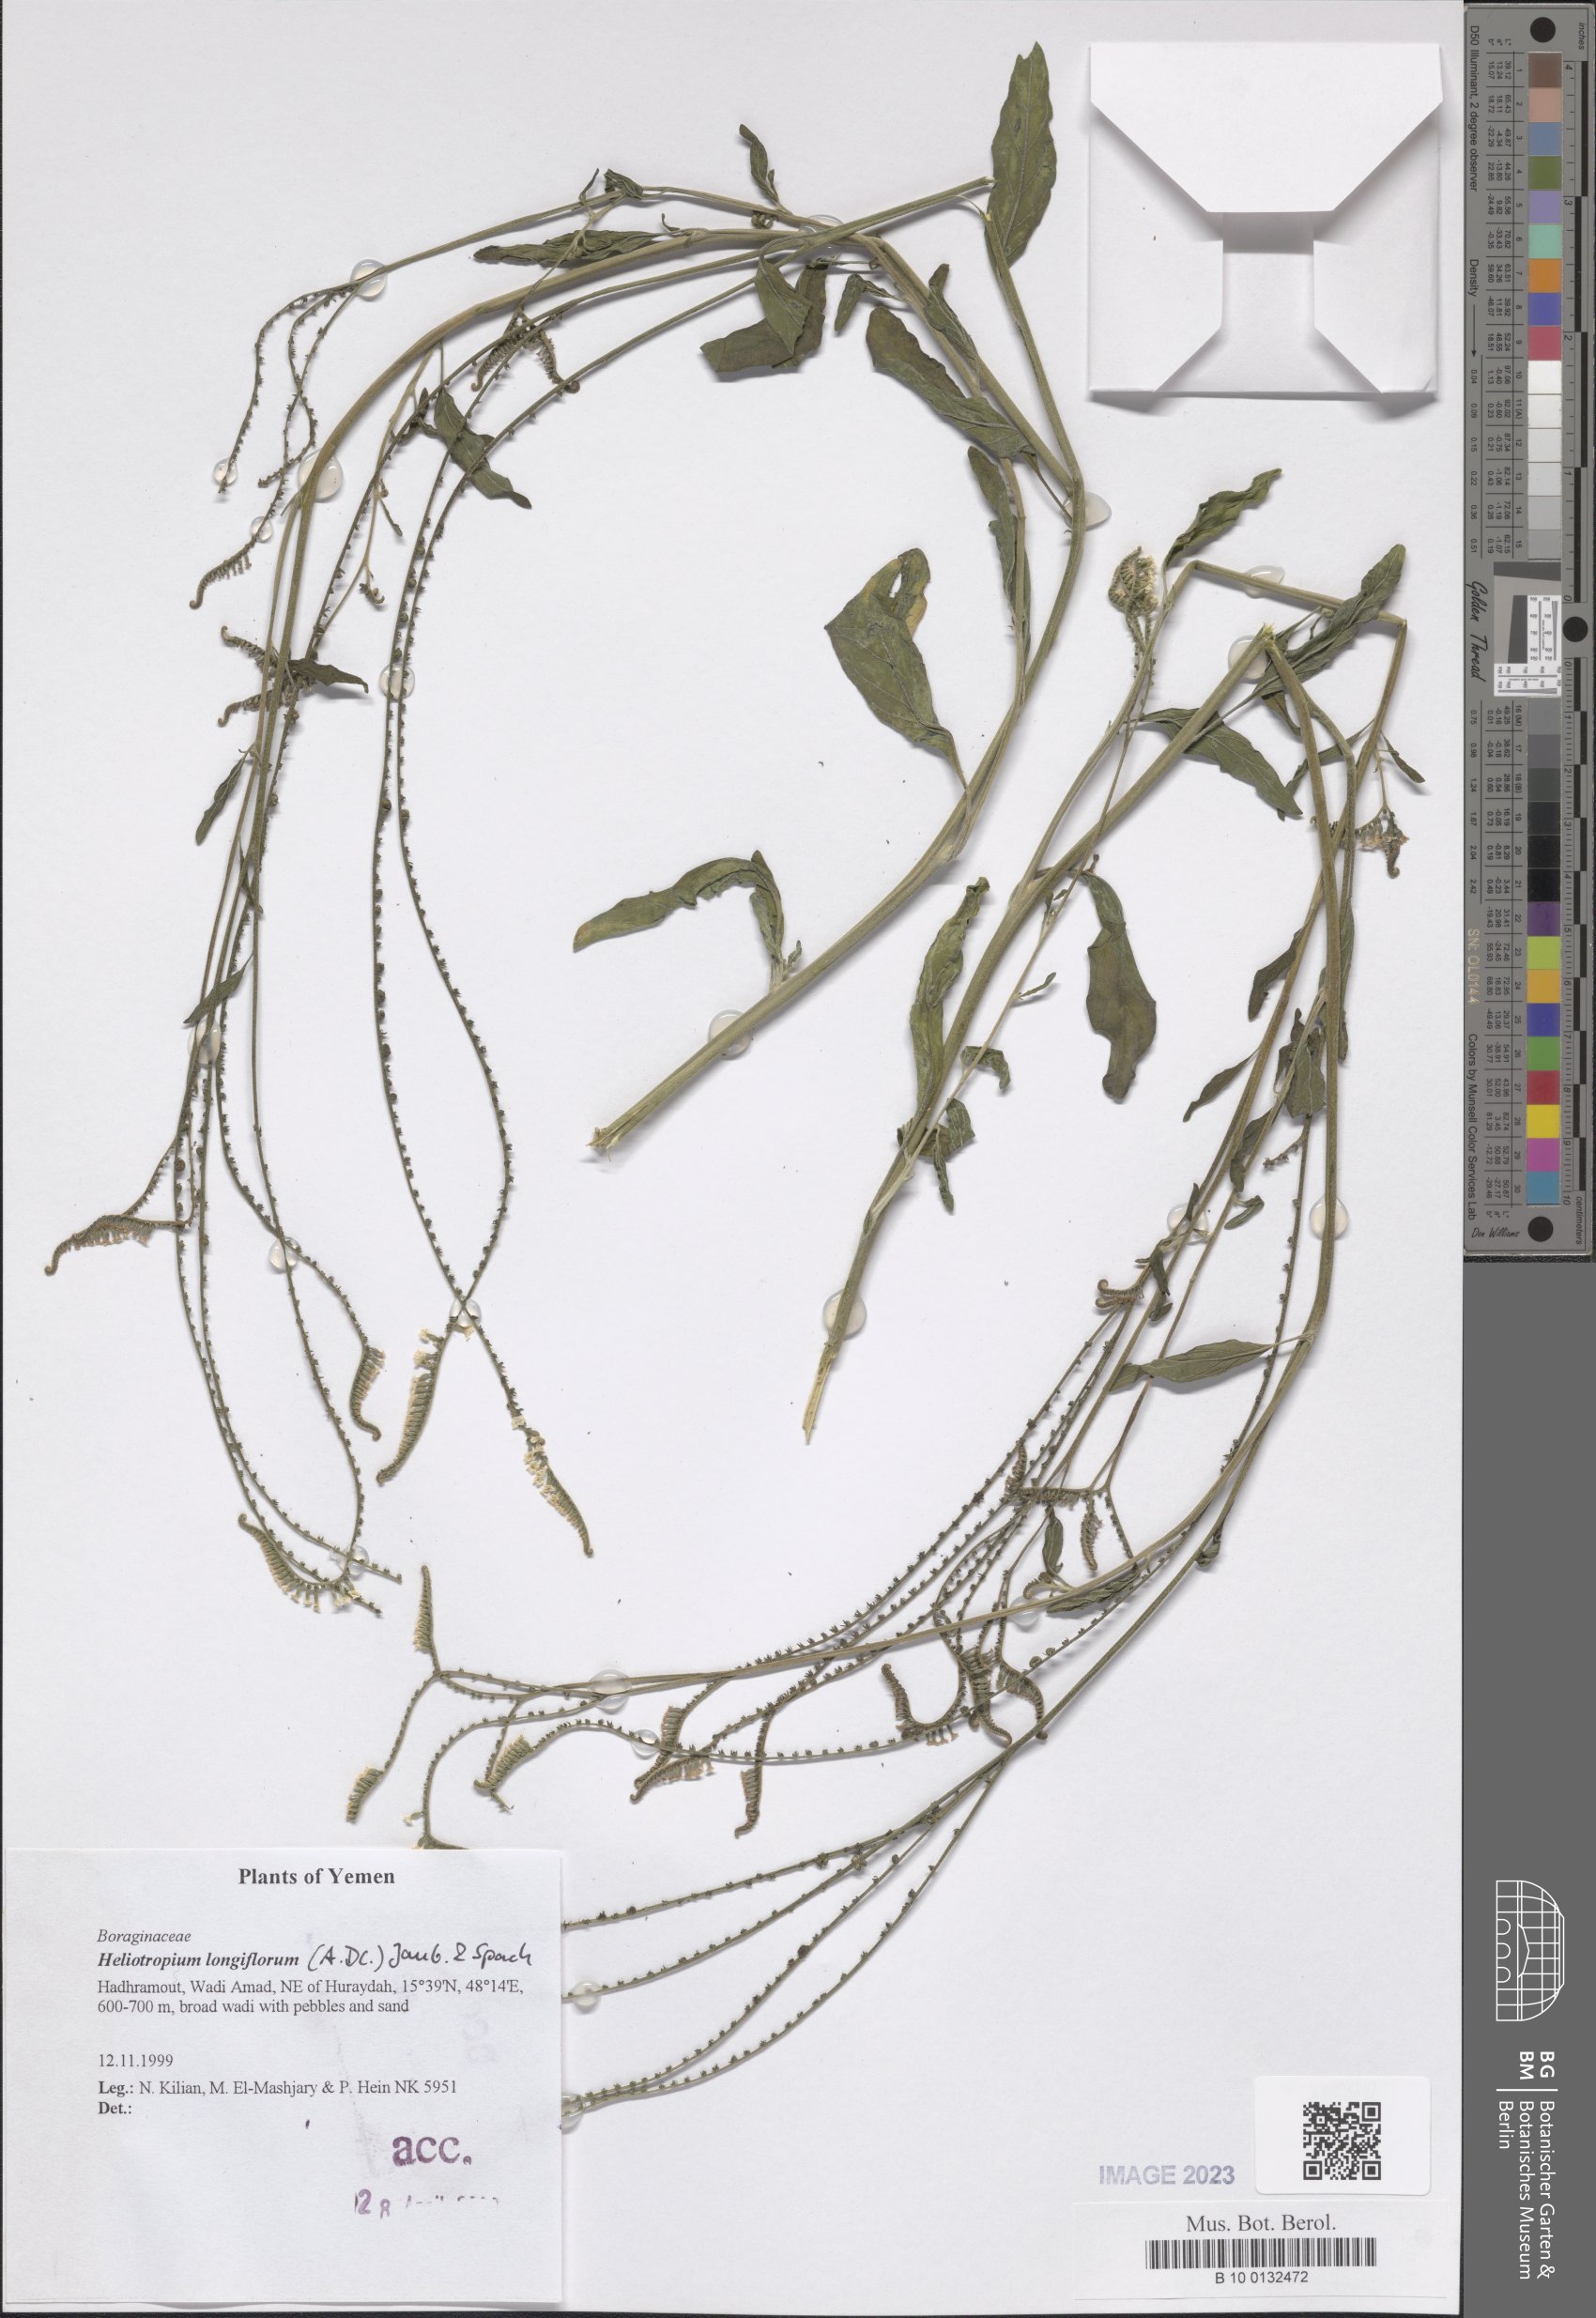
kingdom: Plantae
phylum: Tracheophyta
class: Magnoliopsida
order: Boraginales
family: Heliotropiaceae
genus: Heliotropium
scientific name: Heliotropium longiflorum
